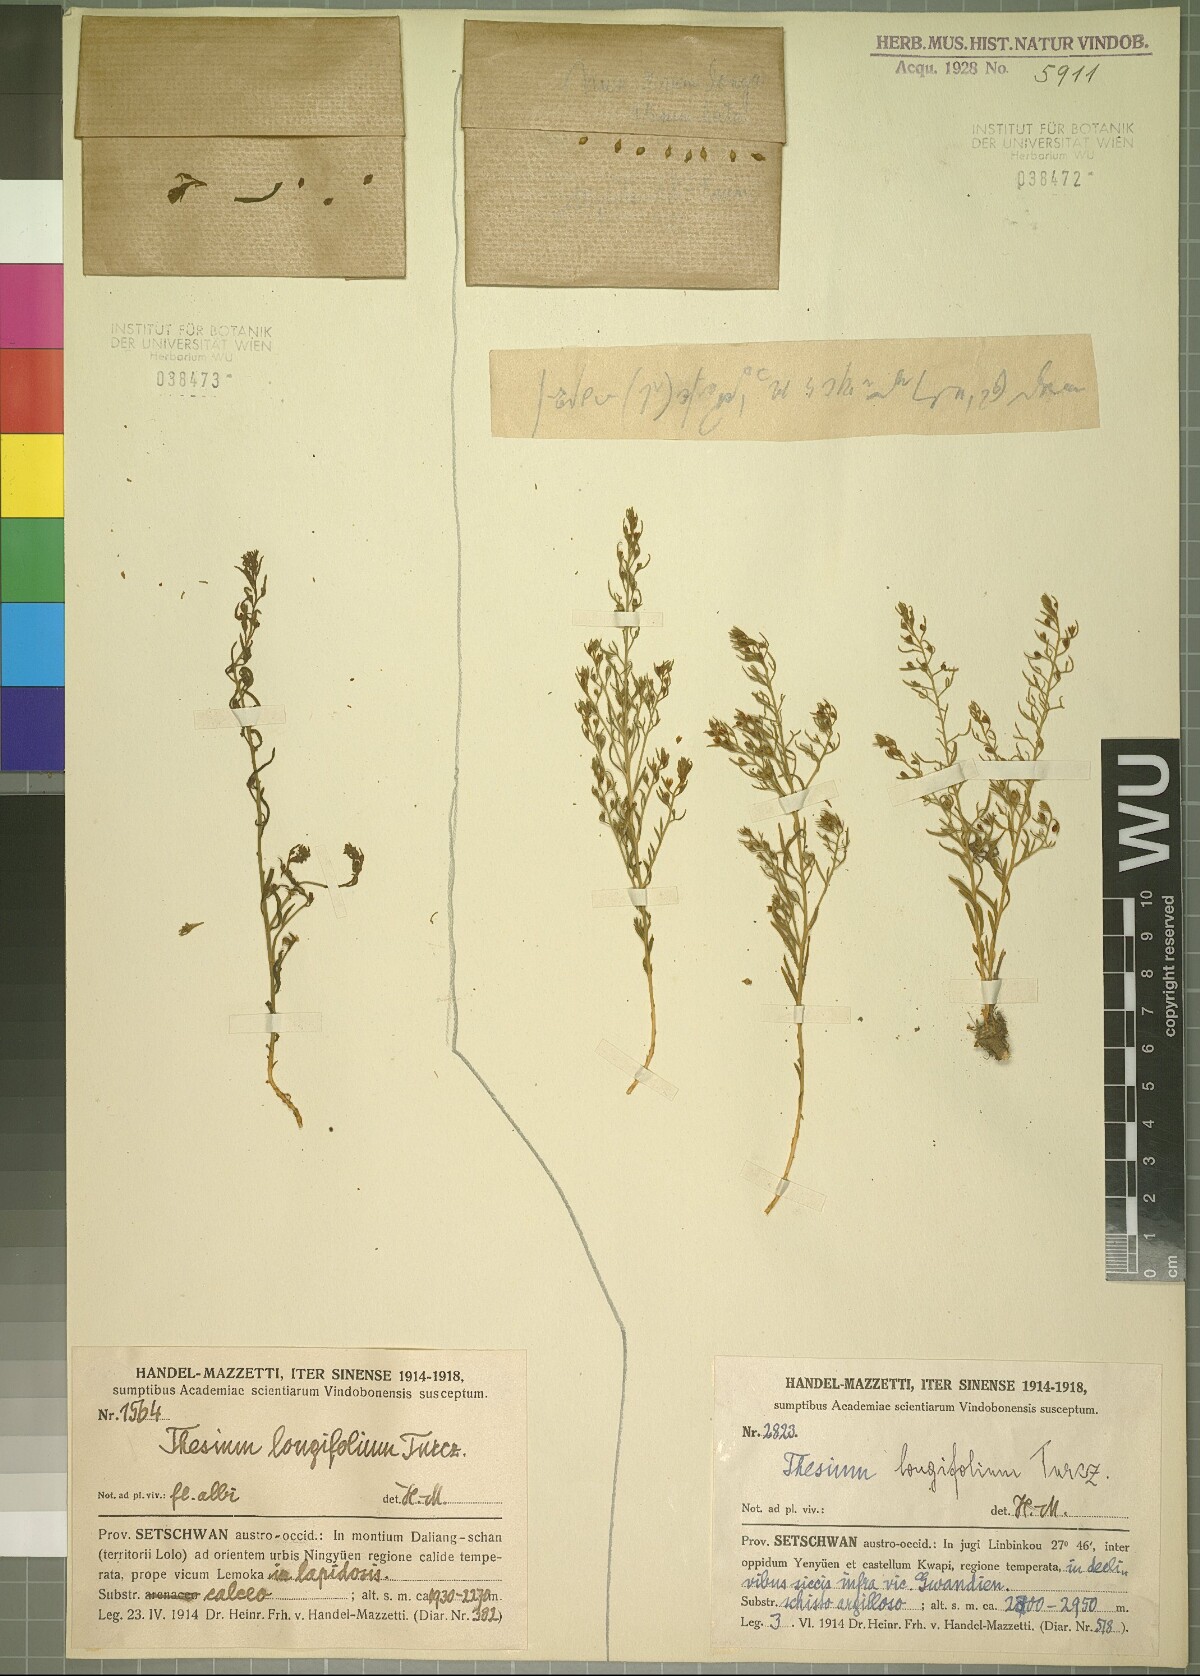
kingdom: Plantae
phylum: Tracheophyta
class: Magnoliopsida
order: Santalales
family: Thesiaceae
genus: Thesium
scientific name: Thesium longifolium
